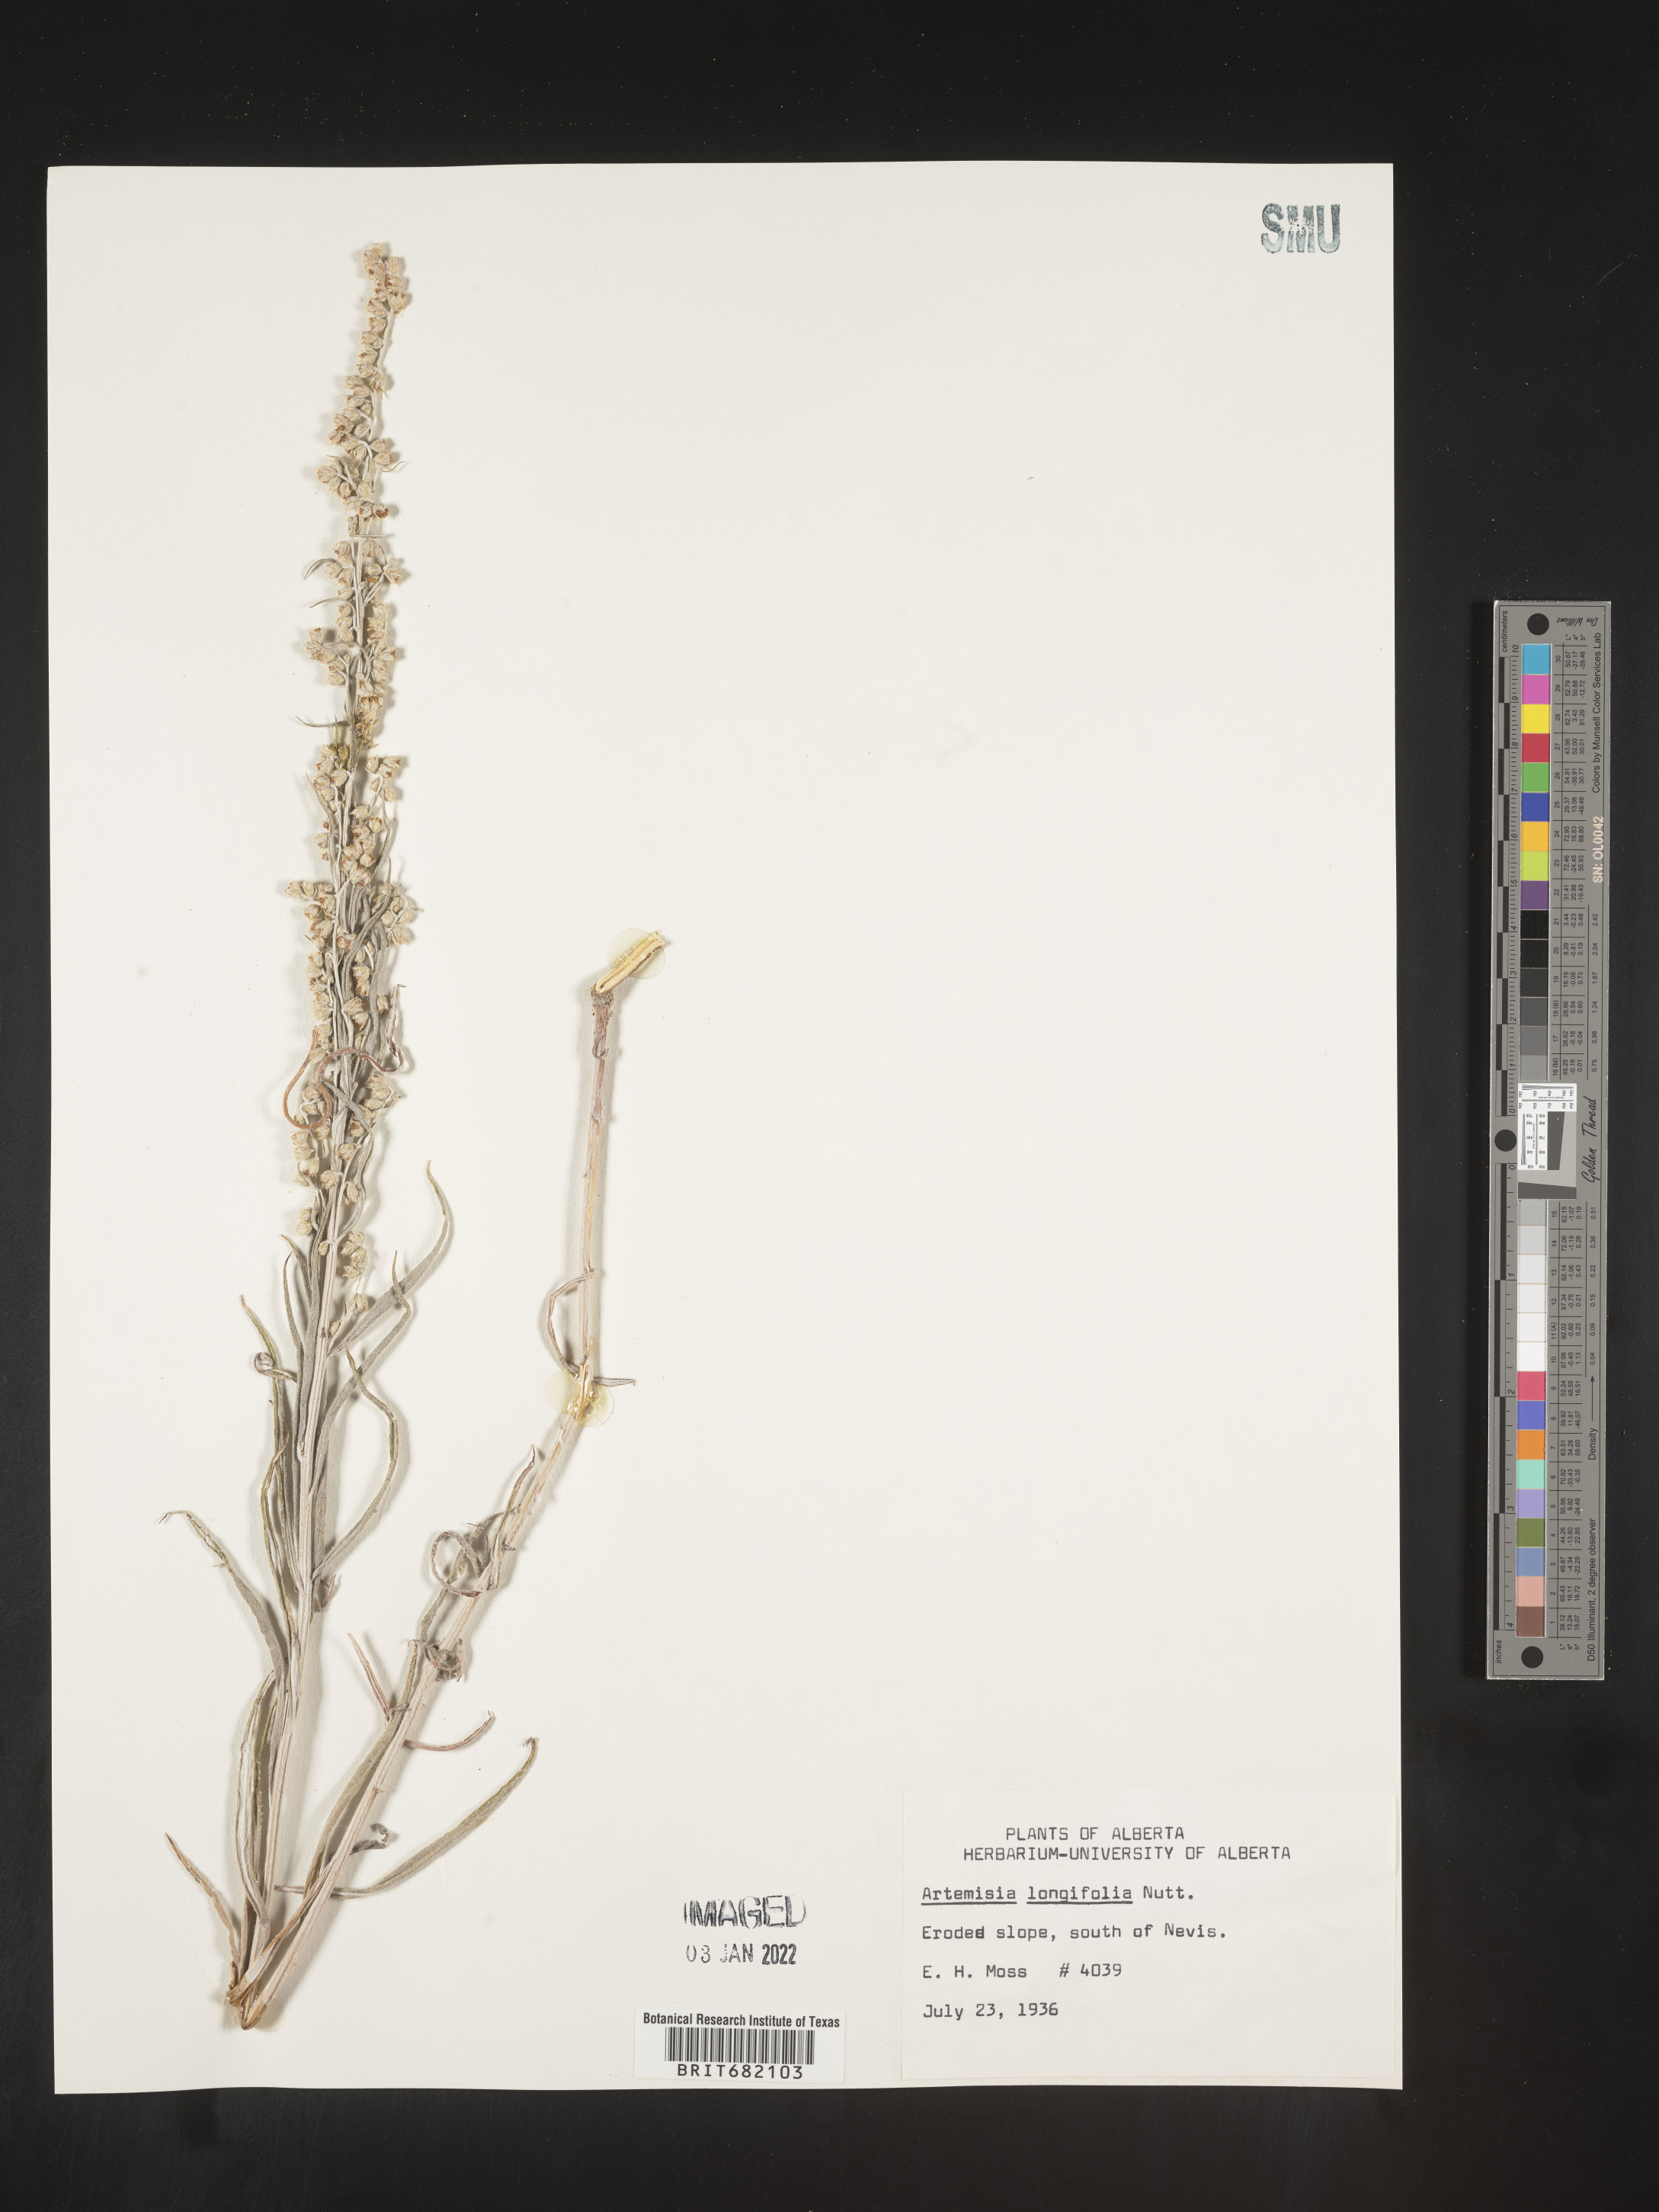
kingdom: Plantae
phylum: Tracheophyta
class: Magnoliopsida
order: Asterales
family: Asteraceae
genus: Artemisia
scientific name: Artemisia longifolia
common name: Long-leaved mugwort
